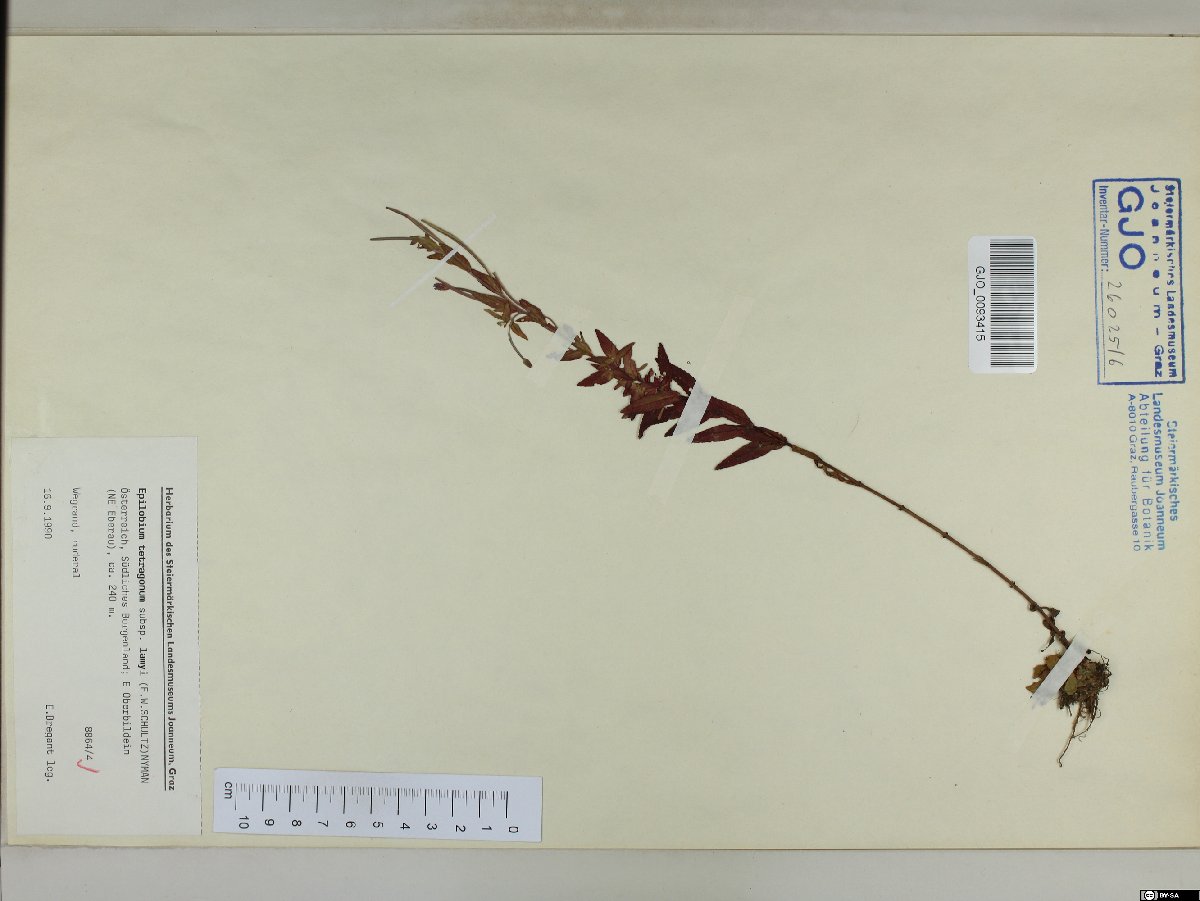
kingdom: Plantae
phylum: Tracheophyta
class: Magnoliopsida
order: Myrtales
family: Onagraceae
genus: Epilobium
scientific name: Epilobium lamyi
